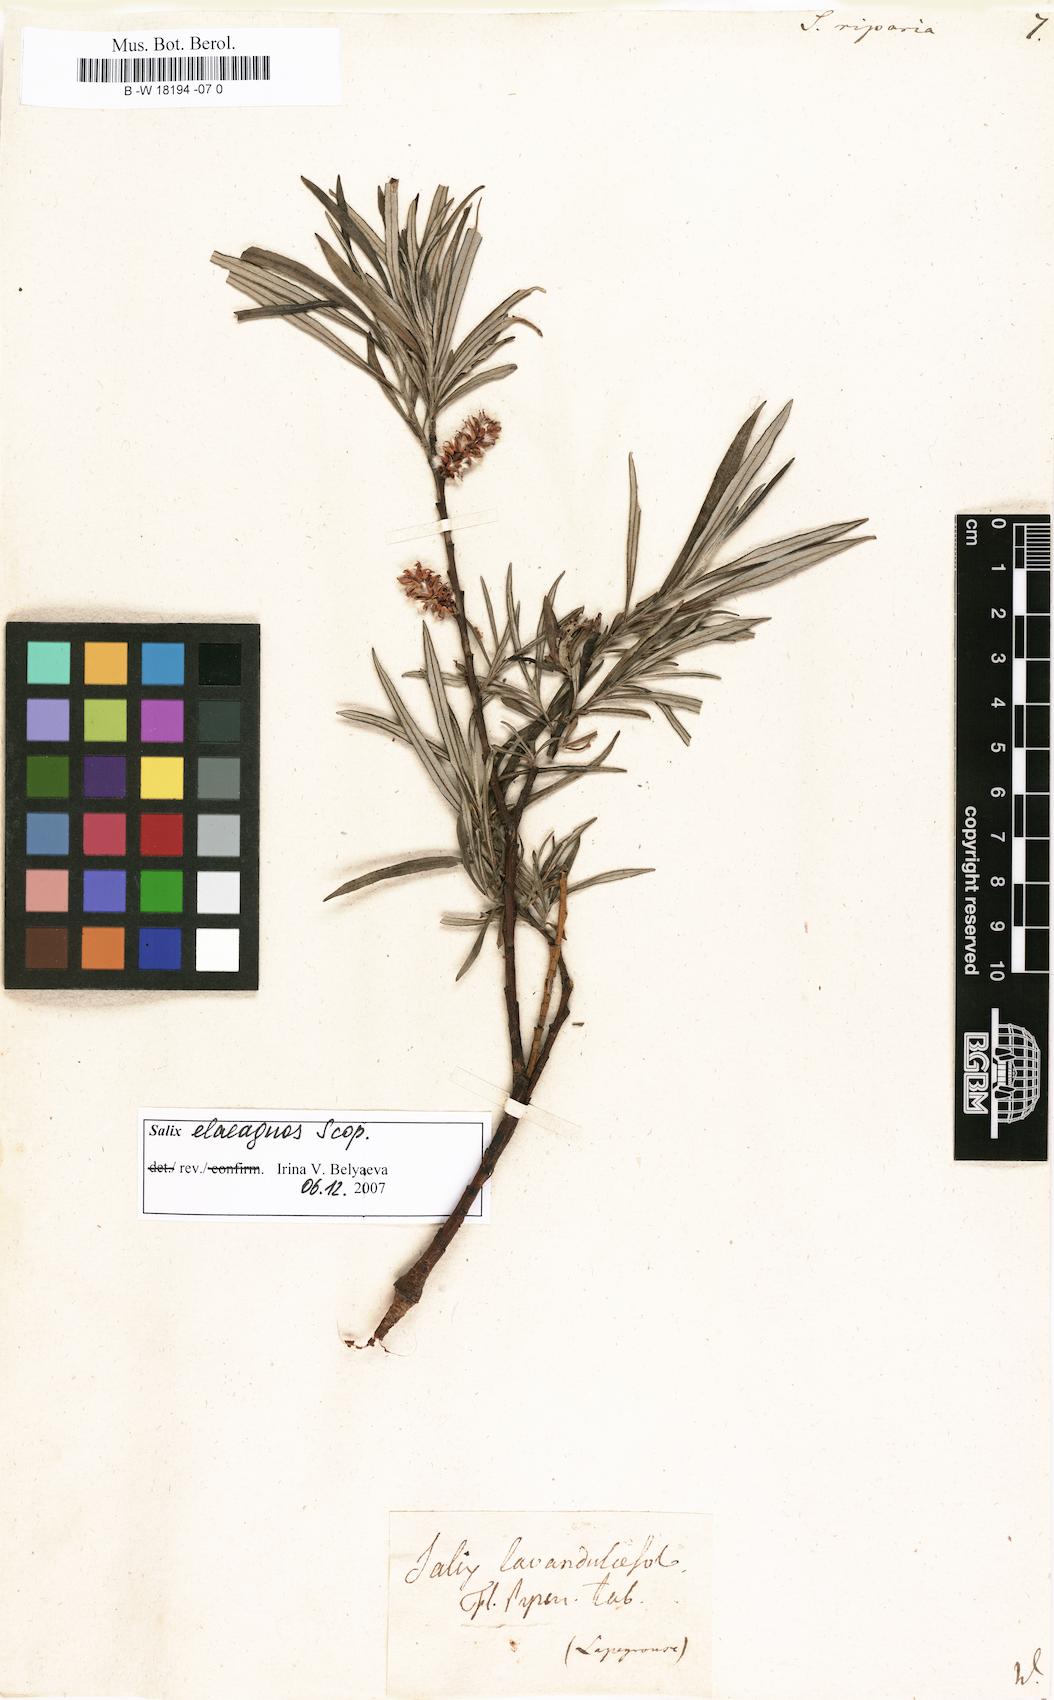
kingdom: Plantae
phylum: Tracheophyta
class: Magnoliopsida
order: Malpighiales
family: Salicaceae
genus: Salix
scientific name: Salix eleagnos
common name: Elaeagnus willow
